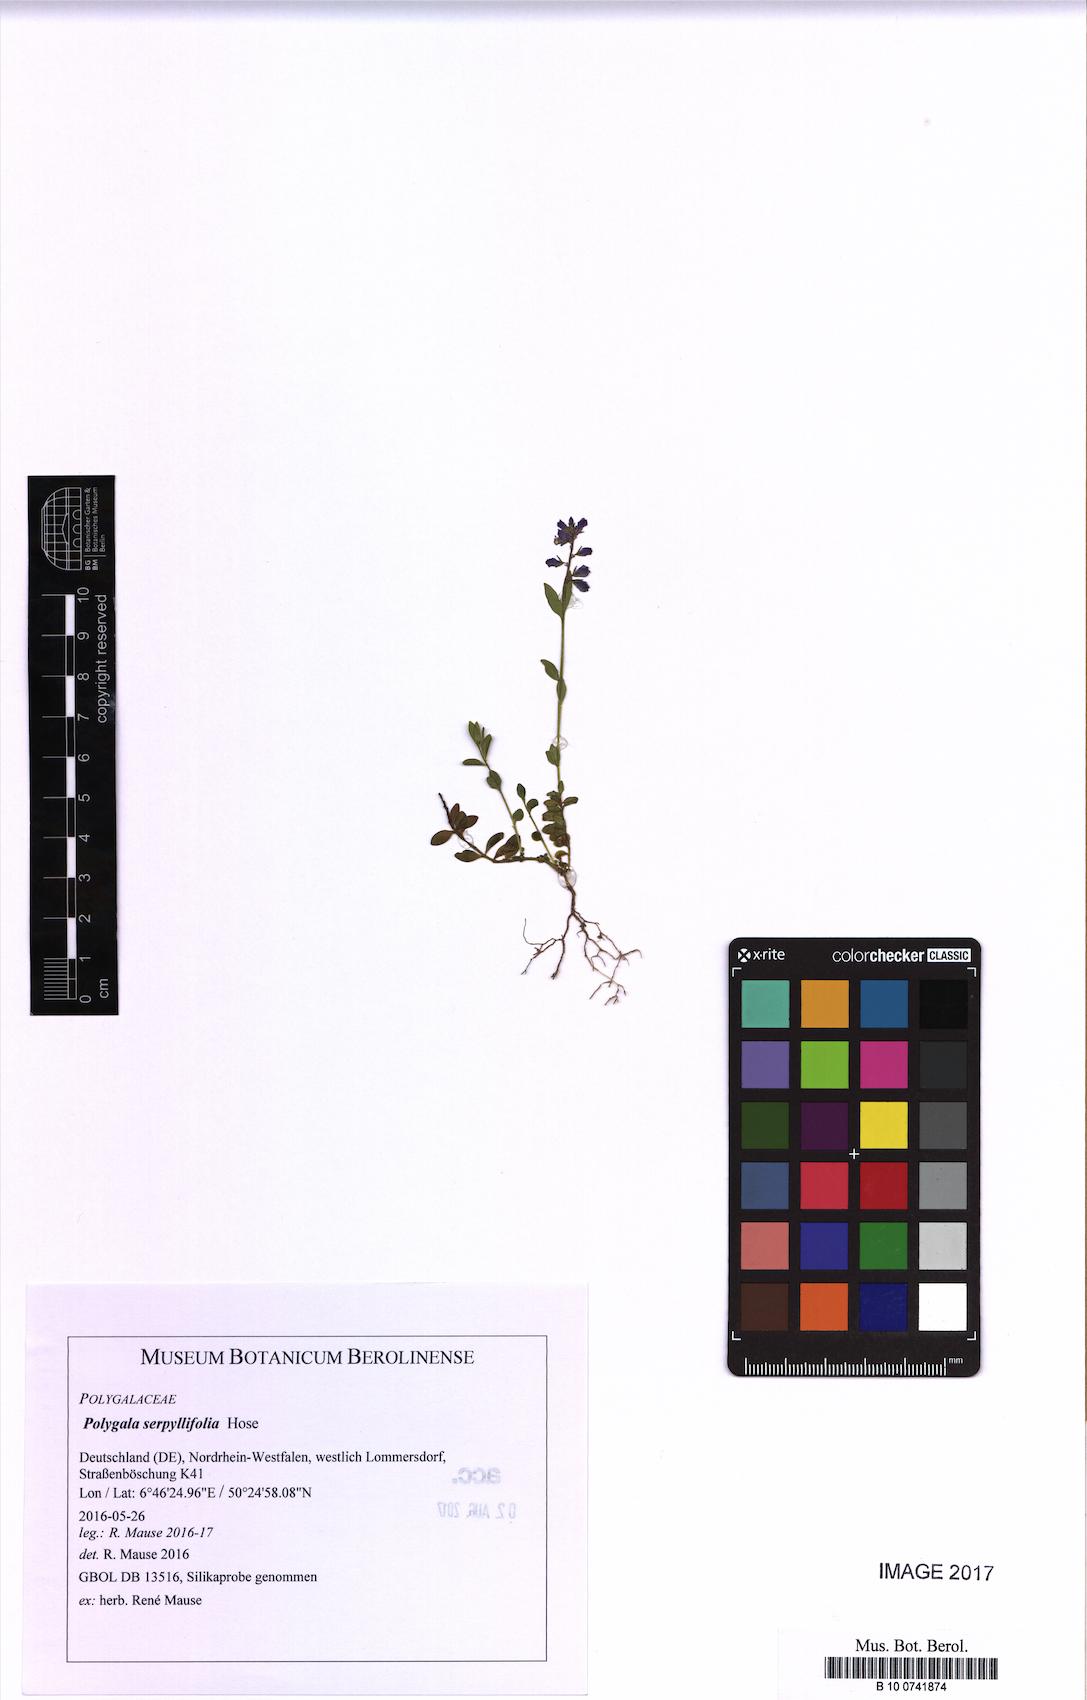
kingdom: Plantae
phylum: Tracheophyta
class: Magnoliopsida
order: Fabales
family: Polygalaceae
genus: Polygala
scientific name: Polygala serpyllifolia
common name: Heath milkwort
